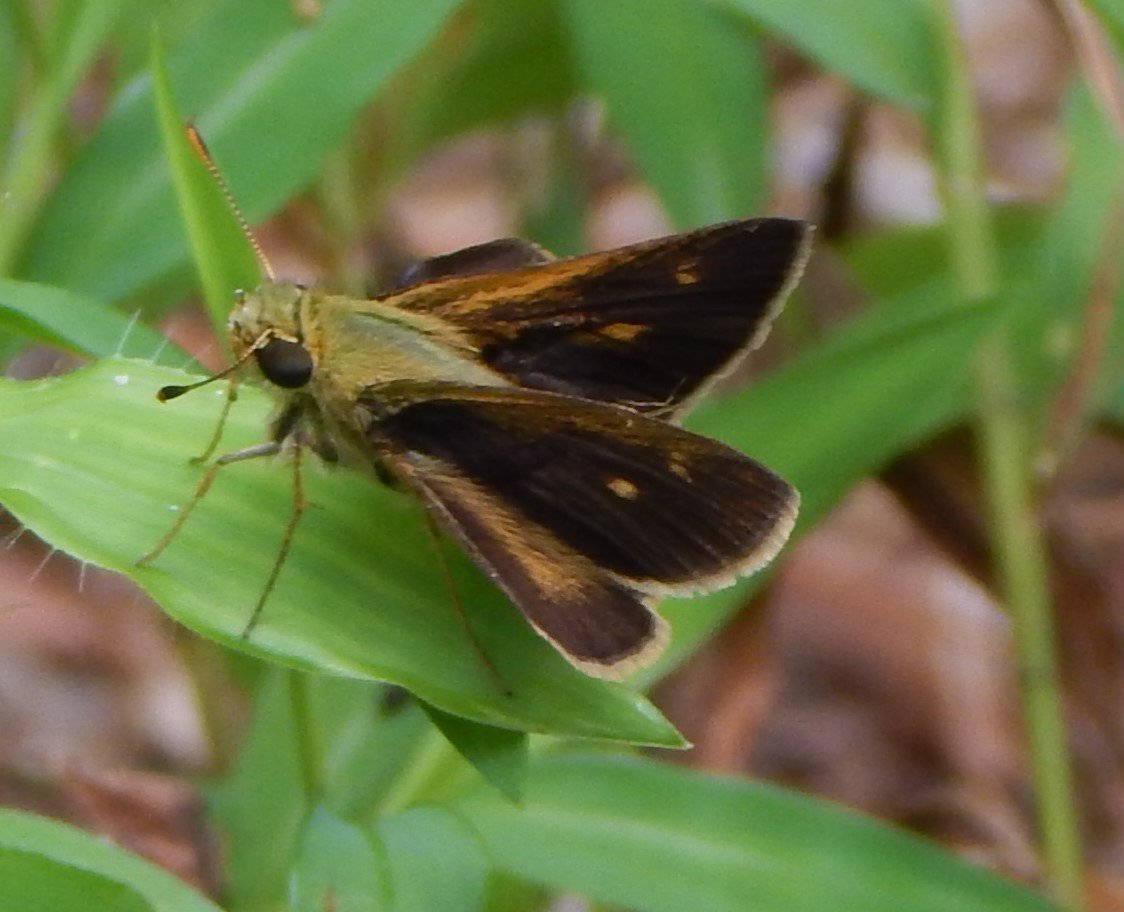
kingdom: Animalia
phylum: Arthropoda
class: Insecta
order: Lepidoptera
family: Hesperiidae
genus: Polites
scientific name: Polites egeremet
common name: Northern Broken-Dash
